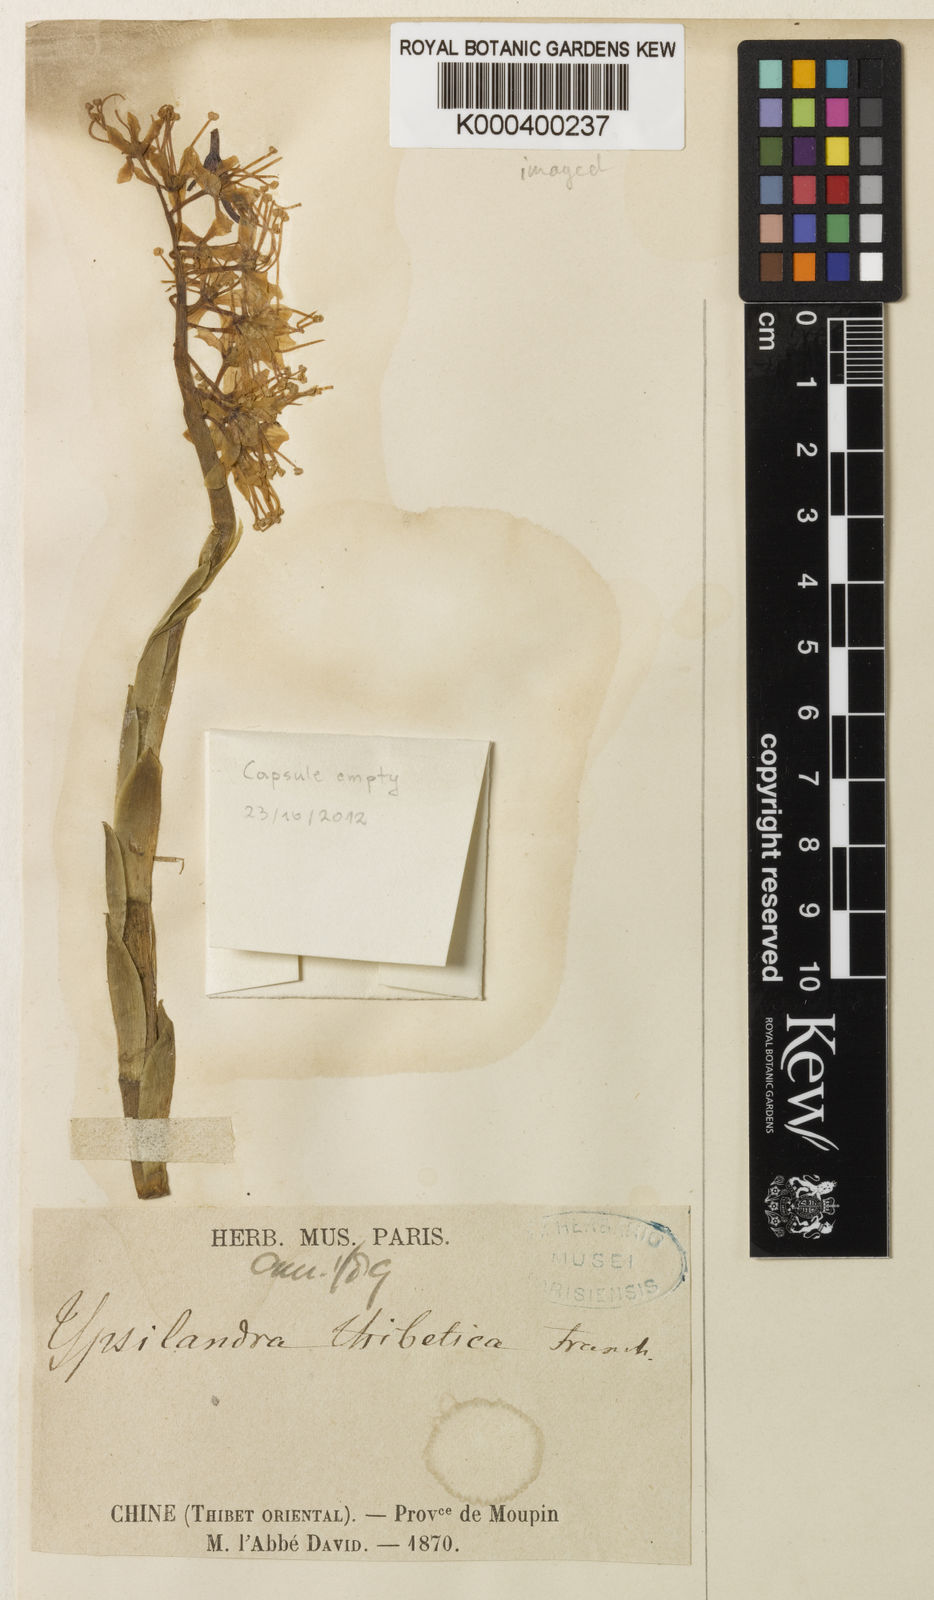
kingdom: Plantae
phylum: Tracheophyta
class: Liliopsida
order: Liliales
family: Melanthiaceae
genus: Helonias
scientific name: Helonias thibetica
